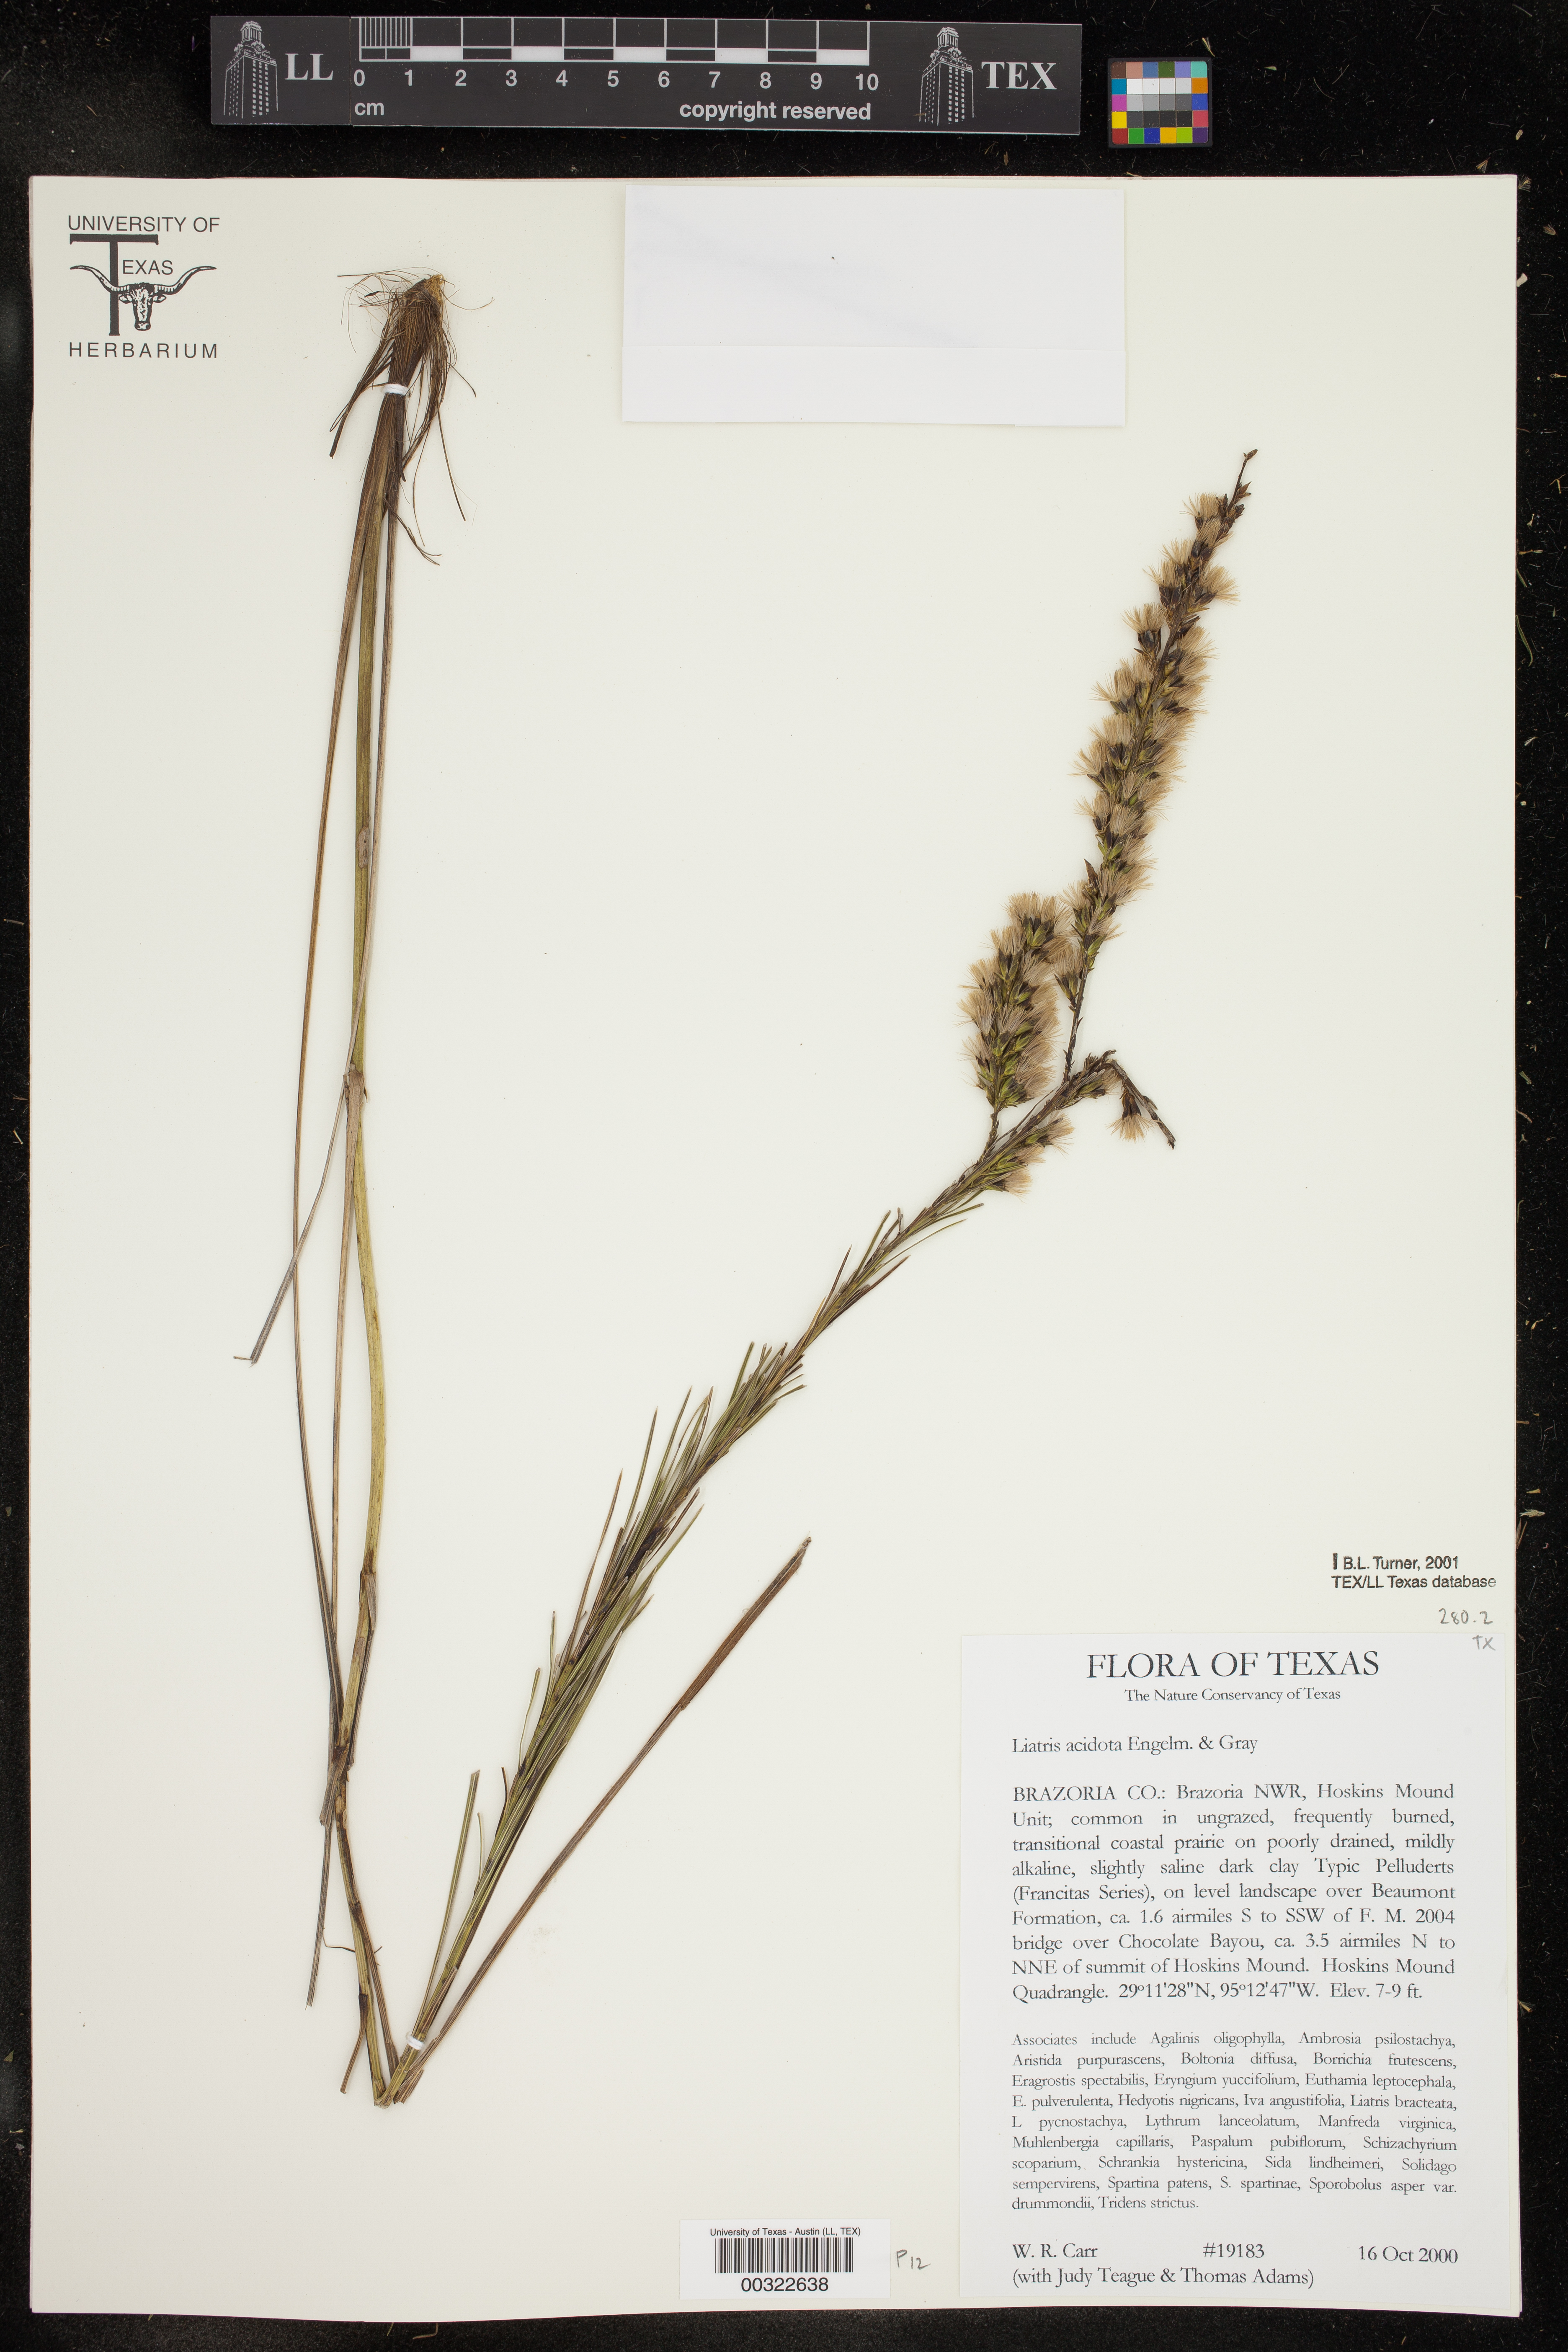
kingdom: Plantae
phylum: Tracheophyta
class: Magnoliopsida
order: Asterales
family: Asteraceae
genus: Liatris
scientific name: Liatris acidota
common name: Gulf coast gayfeather
